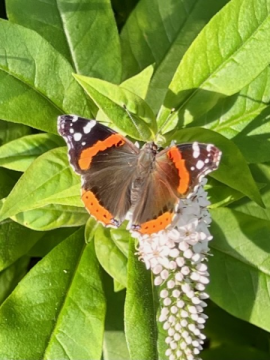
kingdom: Animalia
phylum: Arthropoda
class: Insecta
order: Lepidoptera
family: Nymphalidae
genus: Vanessa
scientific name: Vanessa atalanta
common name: Red Admiral
